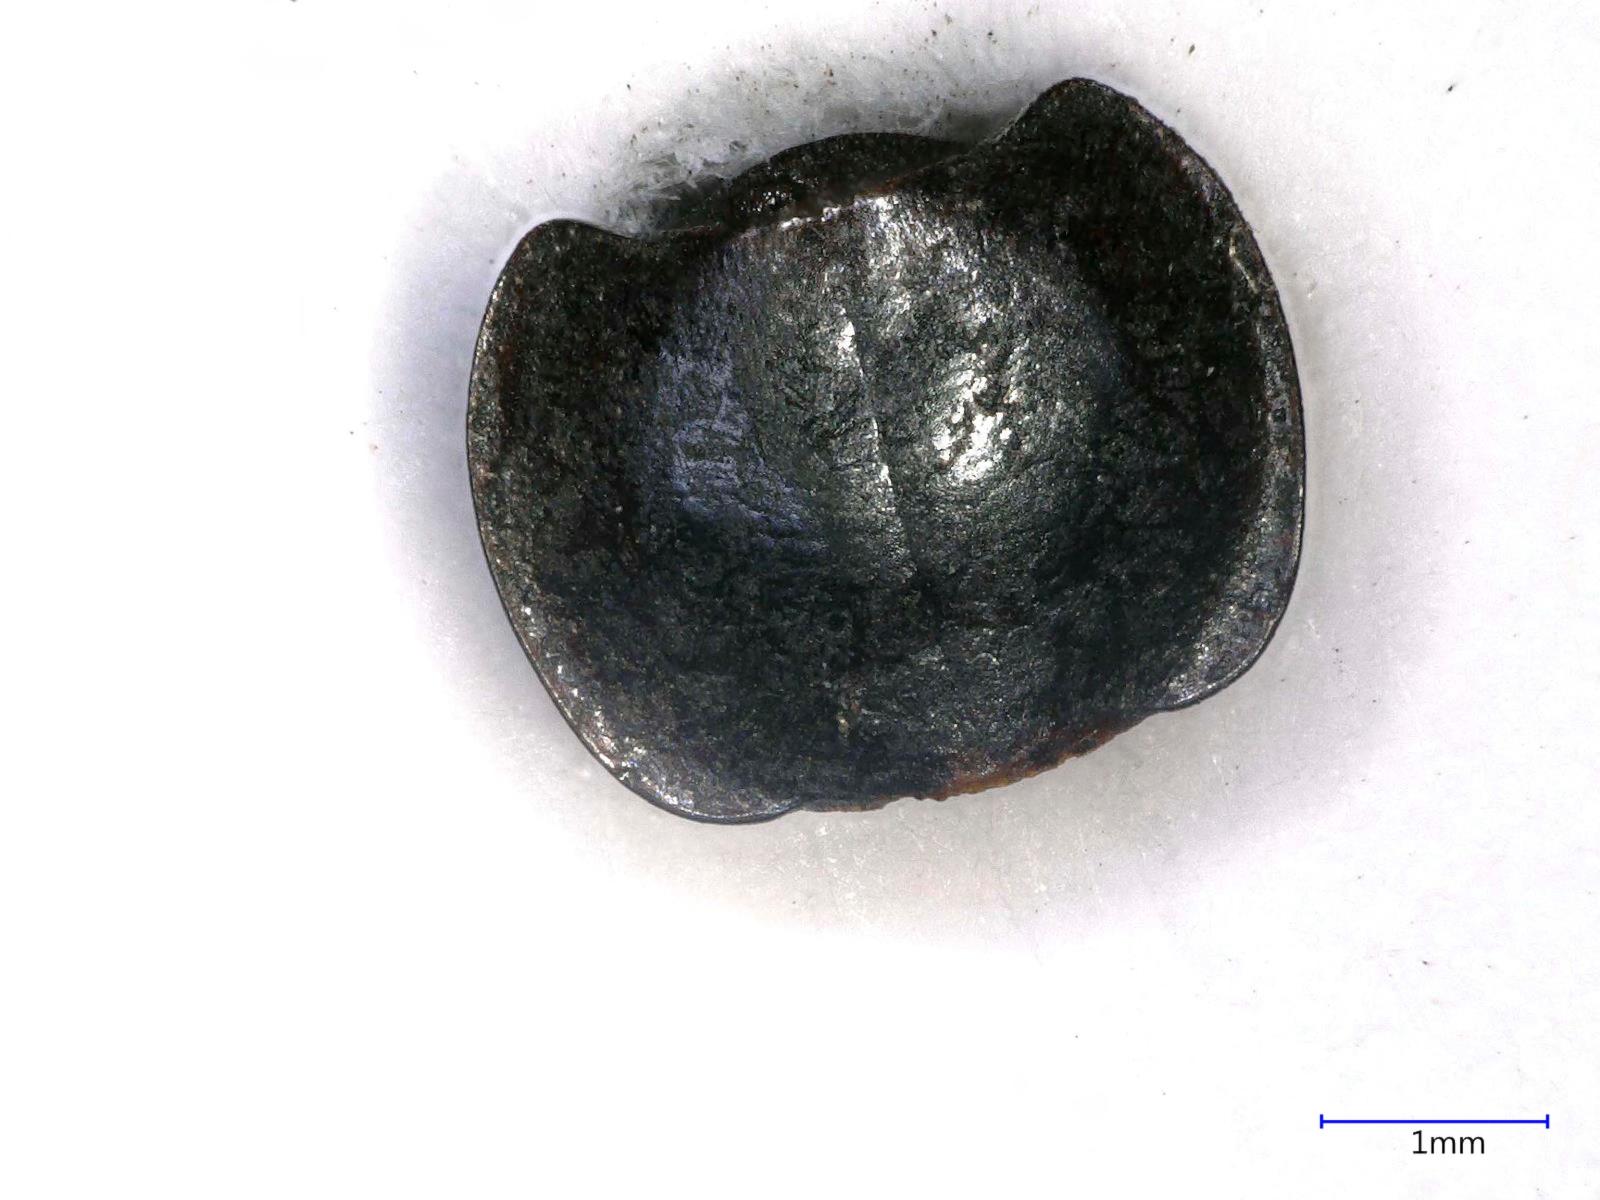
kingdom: Animalia
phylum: Arthropoda
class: Insecta
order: Coleoptera
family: Carabidae
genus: Tanystoma
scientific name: Tanystoma maculicolle
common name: Tule beetle
